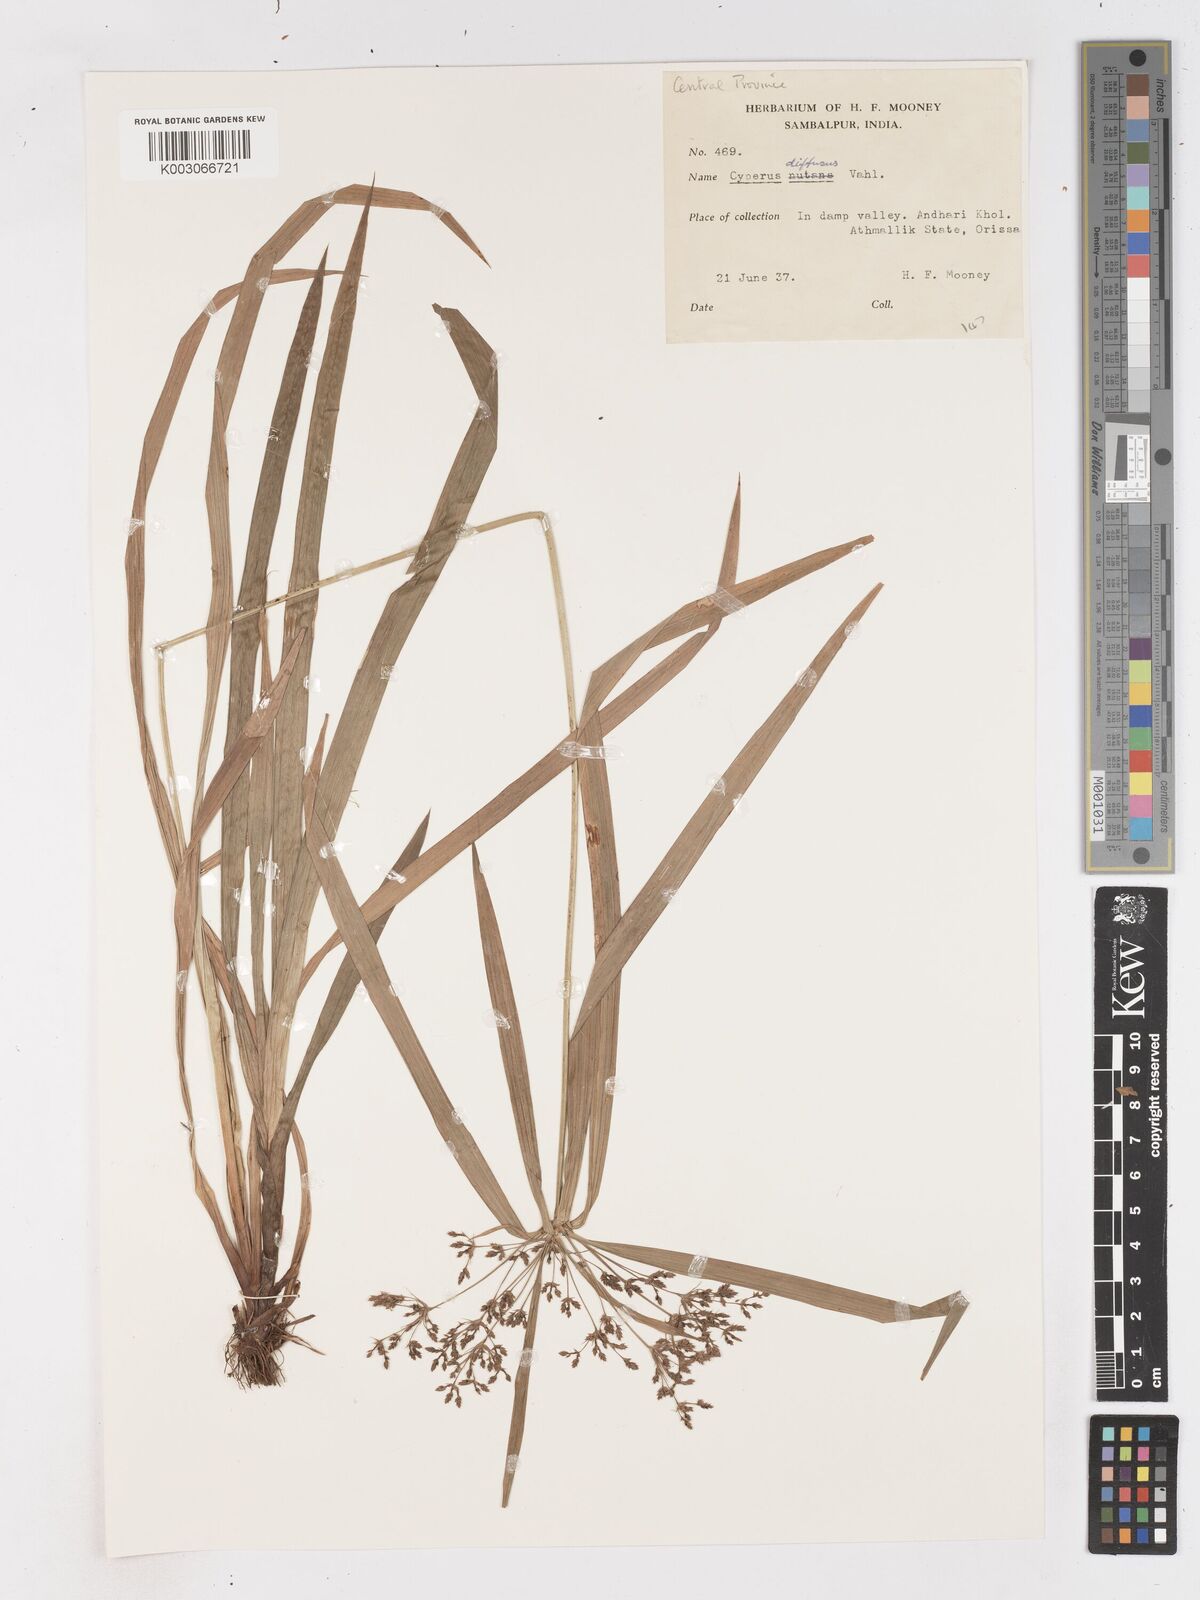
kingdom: Plantae
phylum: Tracheophyta
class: Liliopsida
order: Poales
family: Cyperaceae
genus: Cyperus
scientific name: Cyperus diffusus
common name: Dwarf umbrella grass
